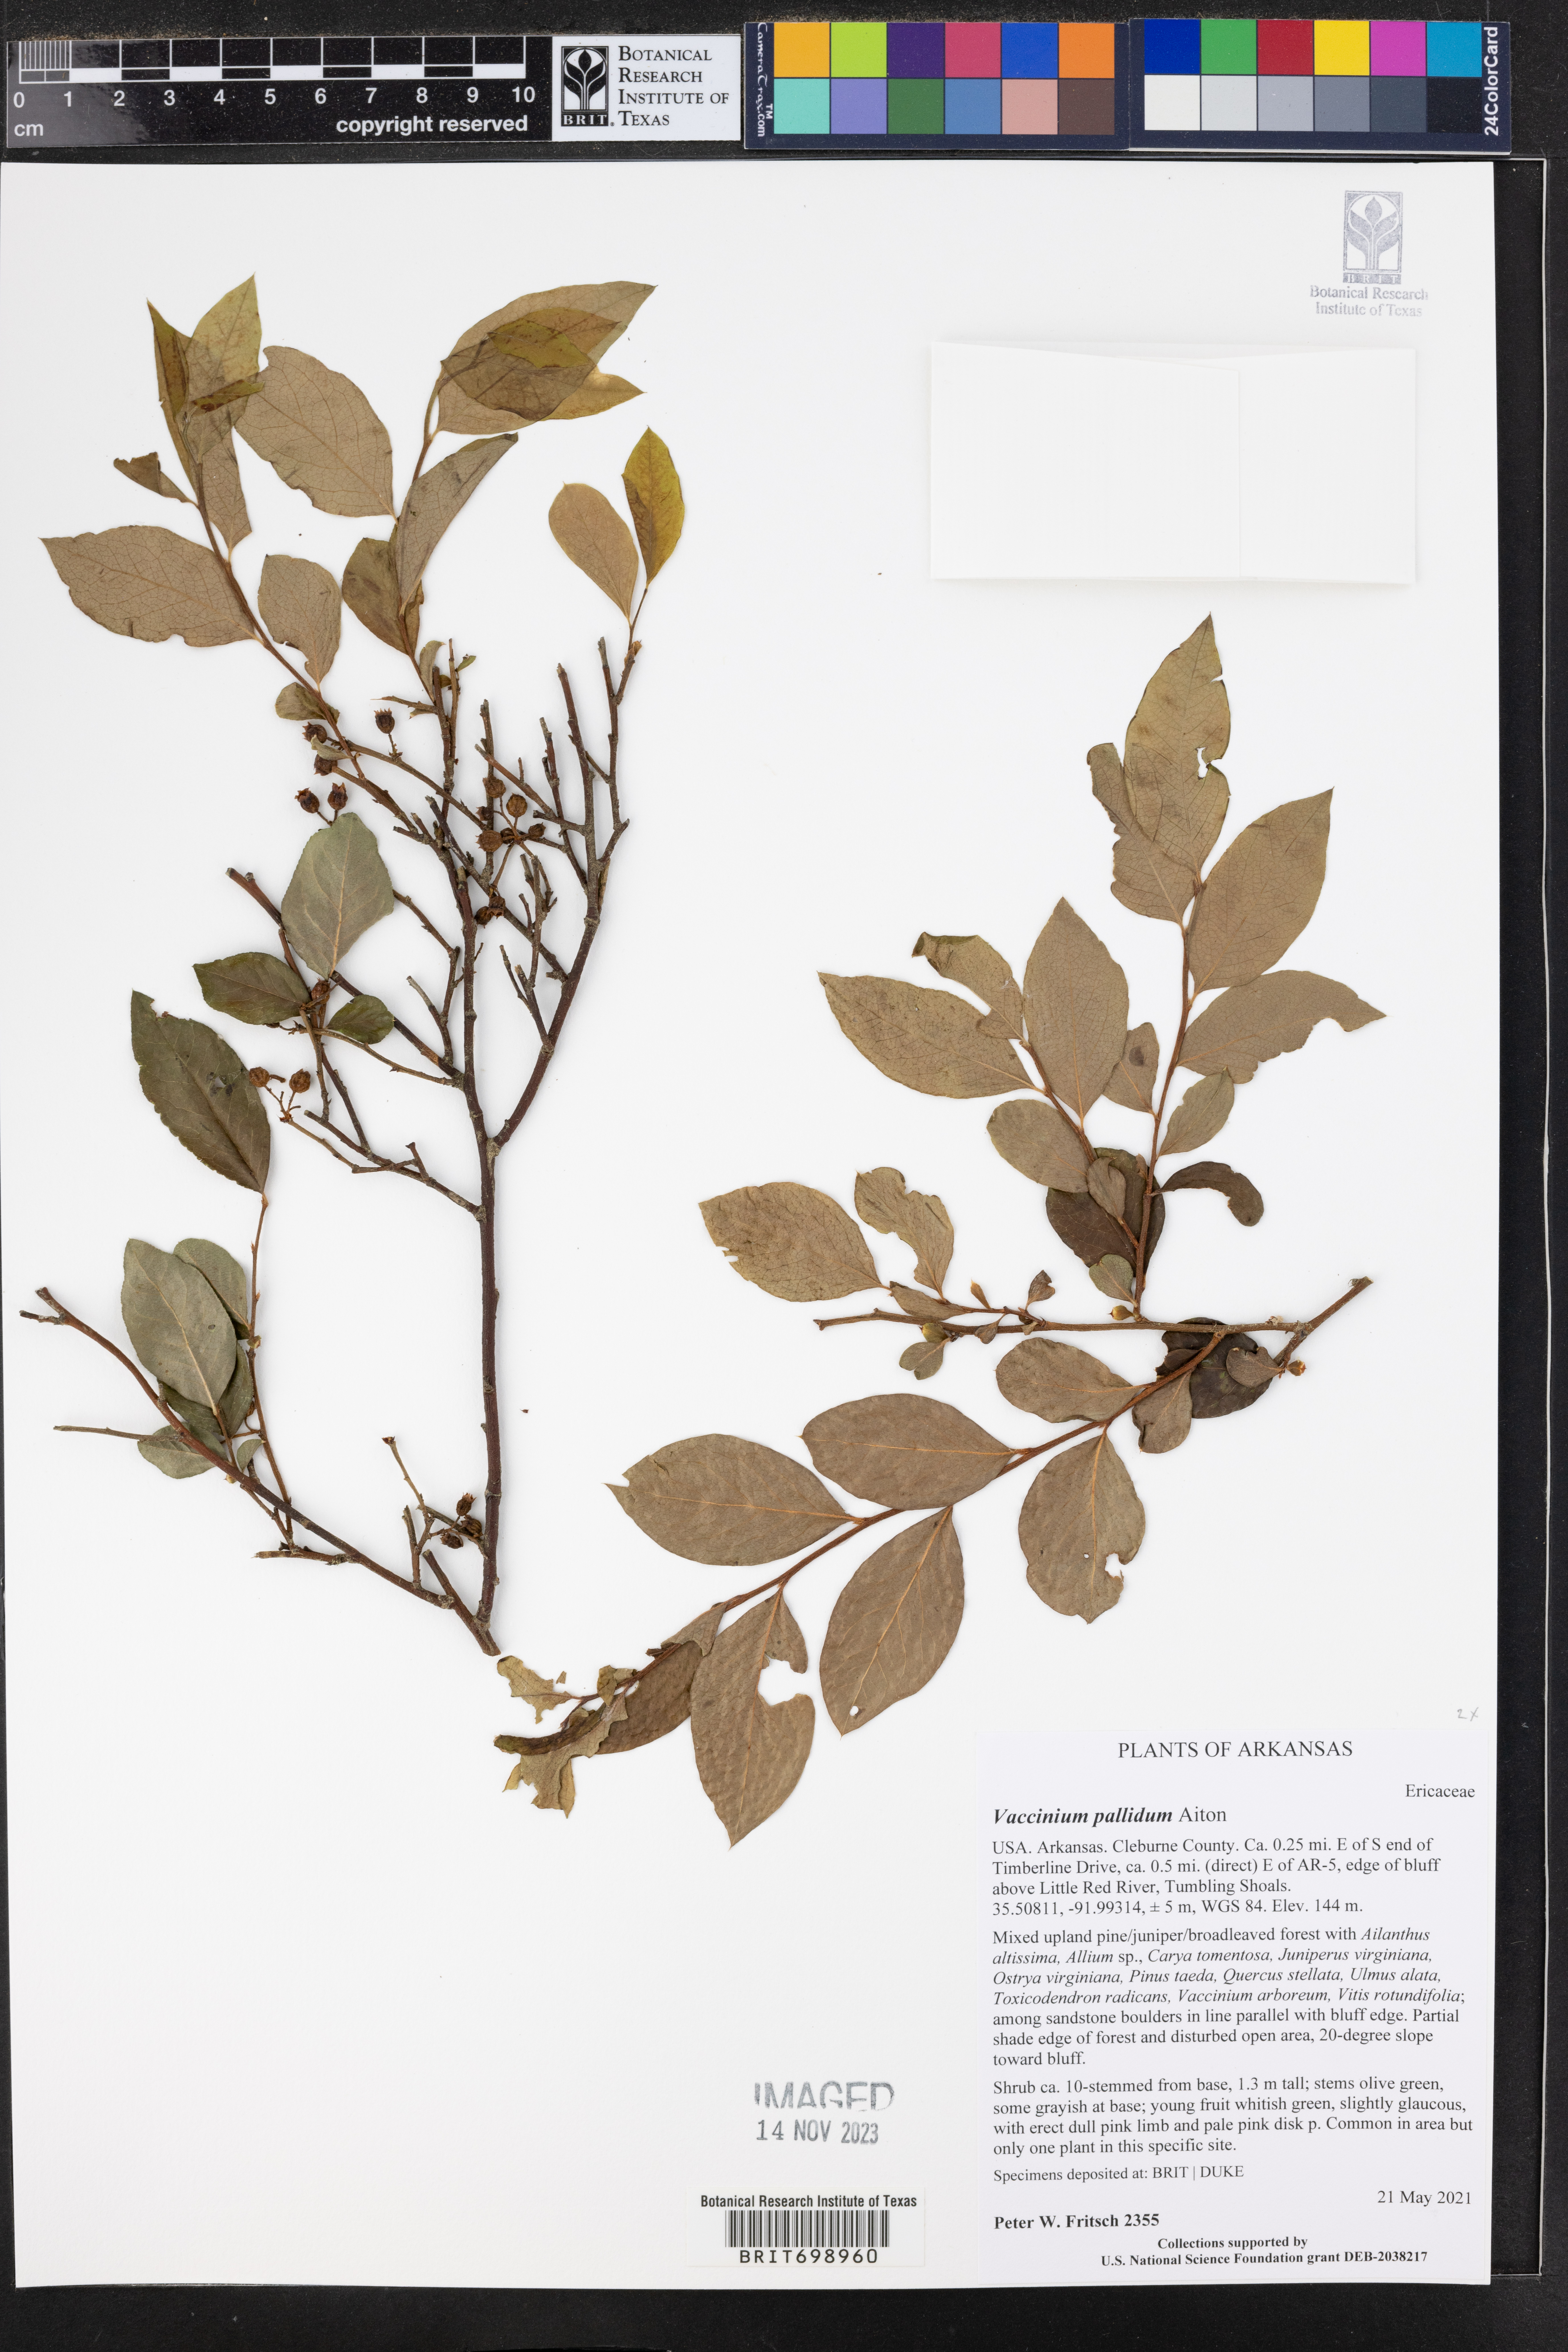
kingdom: Plantae
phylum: Tracheophyta
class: Magnoliopsida
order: Ericales
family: Ericaceae
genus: Vaccinium
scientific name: Vaccinium pallidum
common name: Blue ridge blueberry
